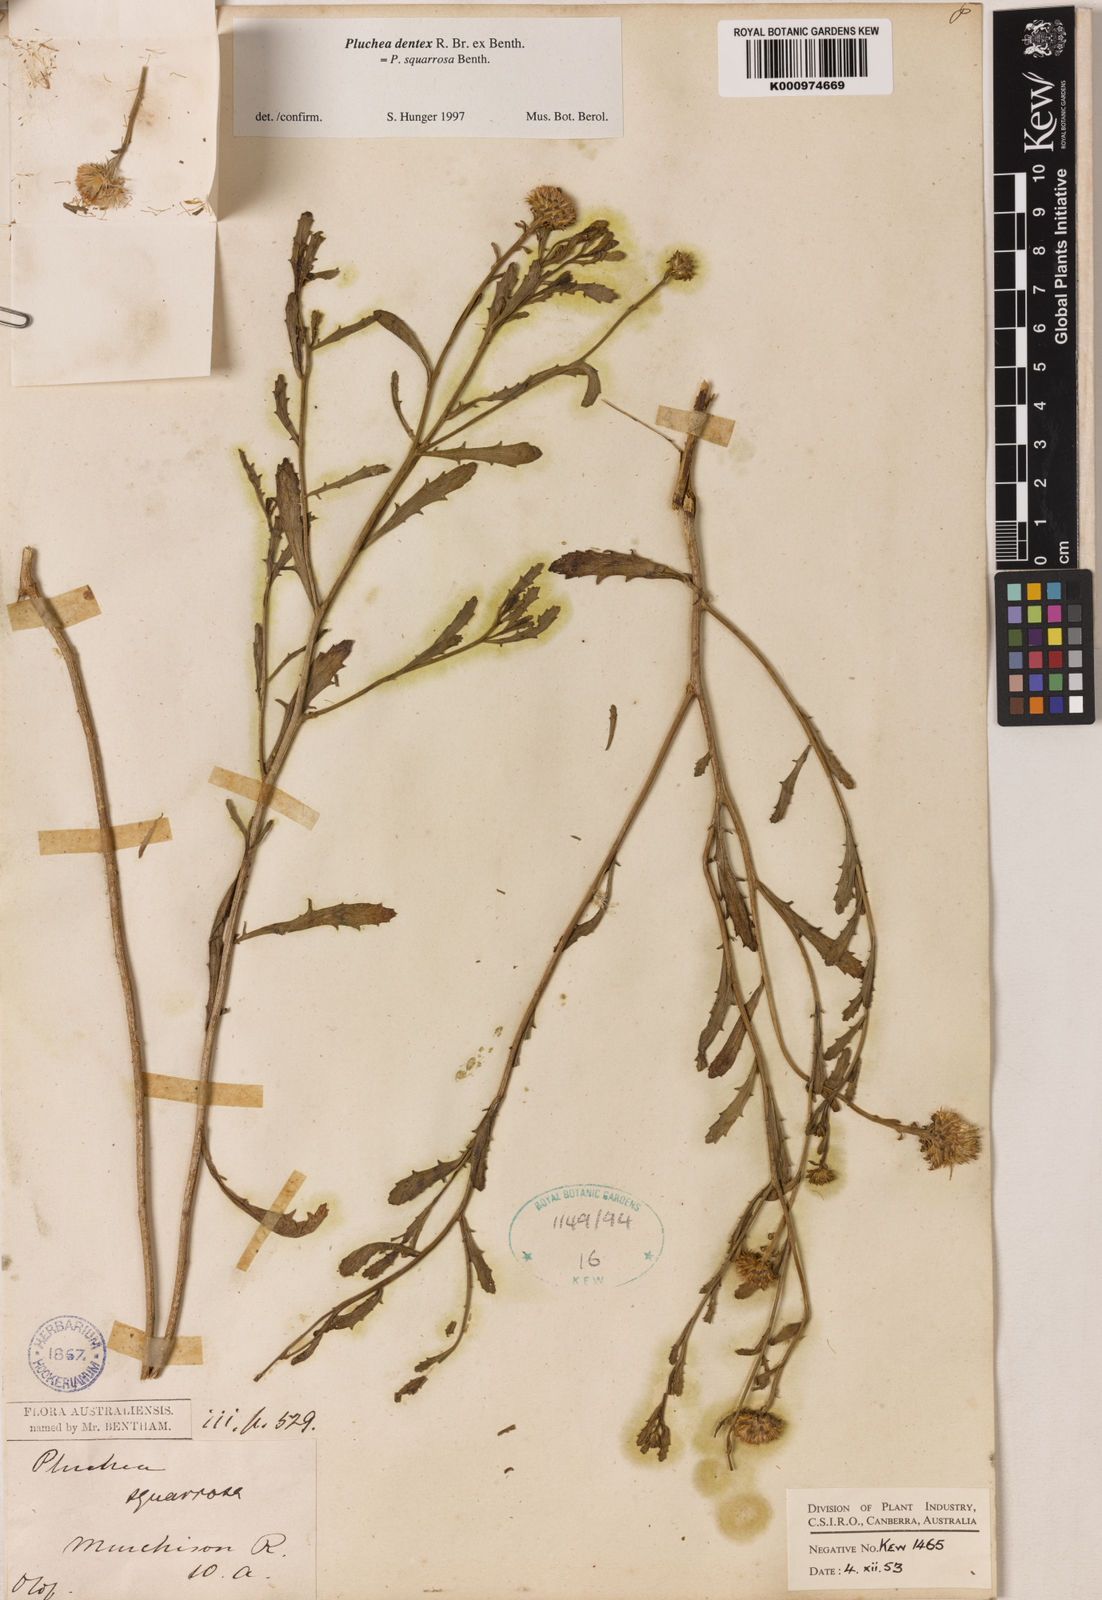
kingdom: Plantae
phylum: Tracheophyta
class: Magnoliopsida
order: Asterales
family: Asteraceae
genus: Pluchea
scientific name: Pluchea dentex
